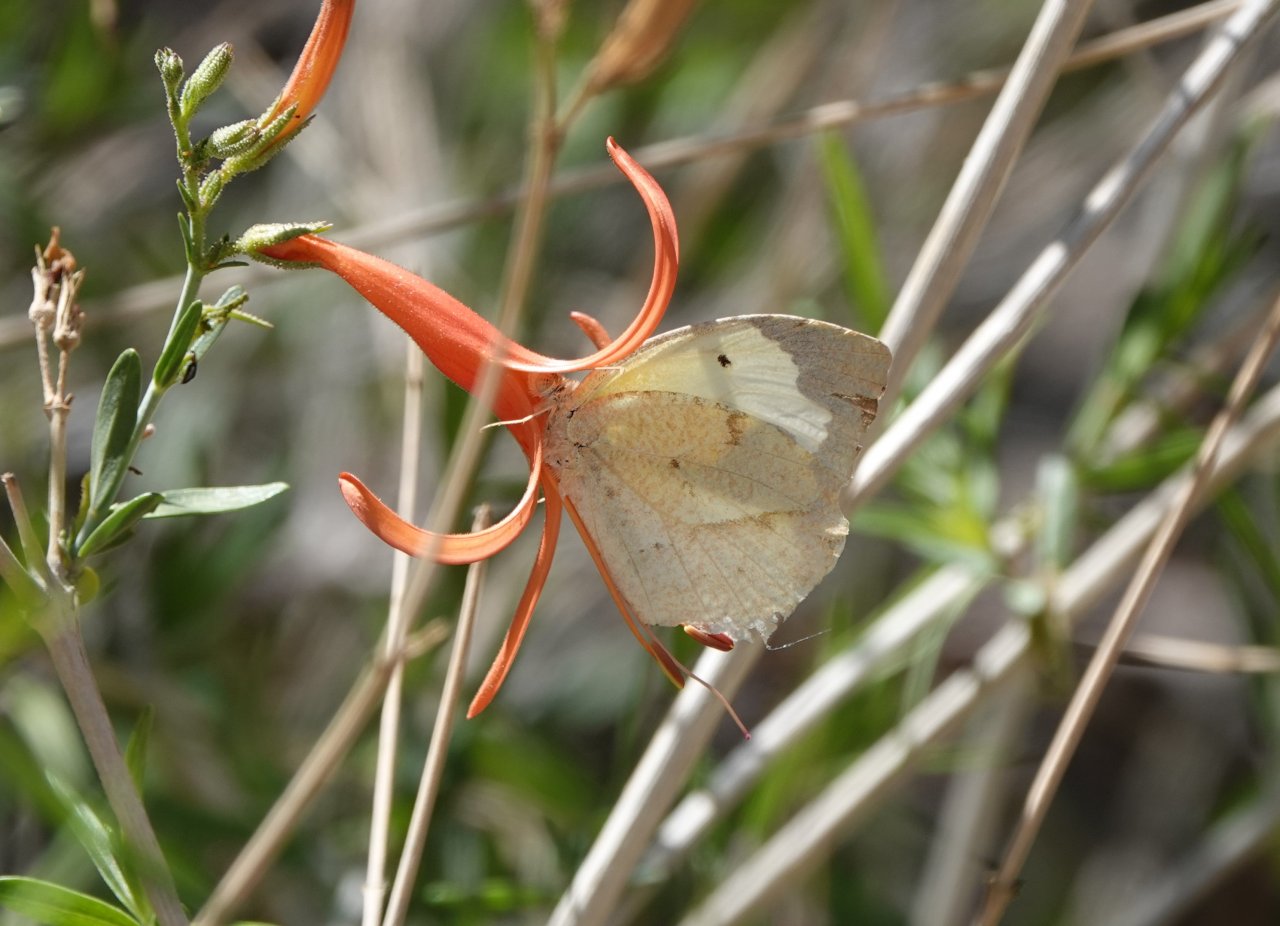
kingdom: Animalia
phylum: Arthropoda
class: Insecta
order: Lepidoptera
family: Pieridae
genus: Eurema
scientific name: Eurema mexicana
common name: Mexican Yellow
